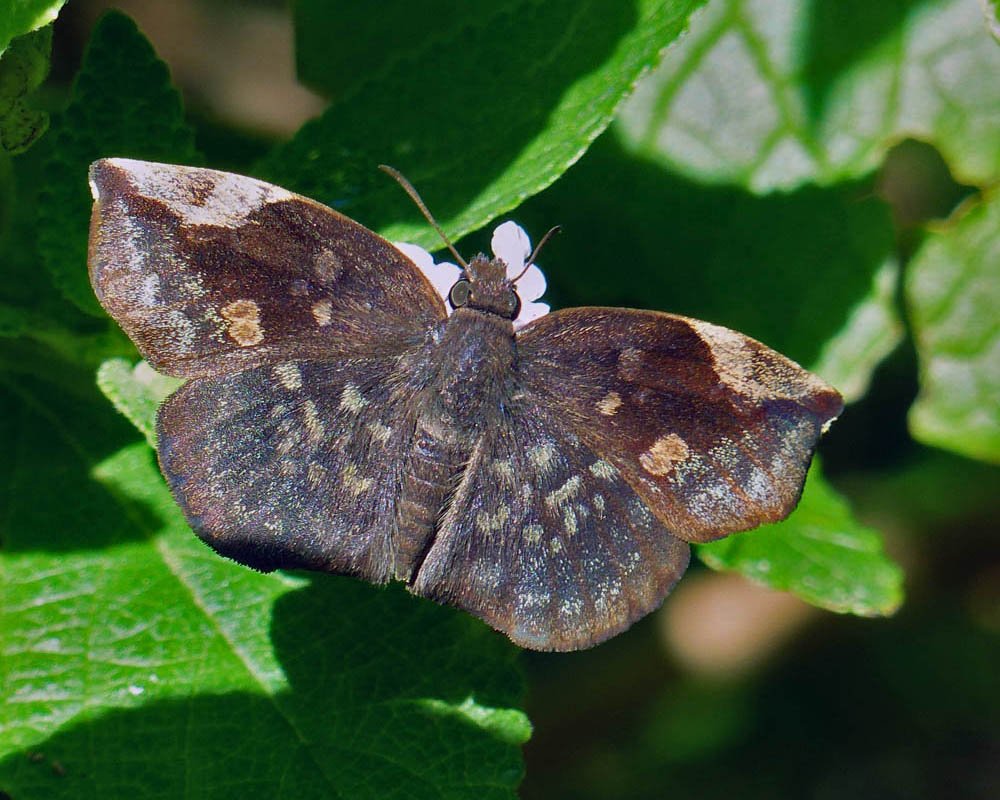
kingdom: Animalia
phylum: Arthropoda
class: Insecta
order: Lepidoptera
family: Hesperiidae
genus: Achlyodes
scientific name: Achlyodes thraso
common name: Sickle-winged Skipper
